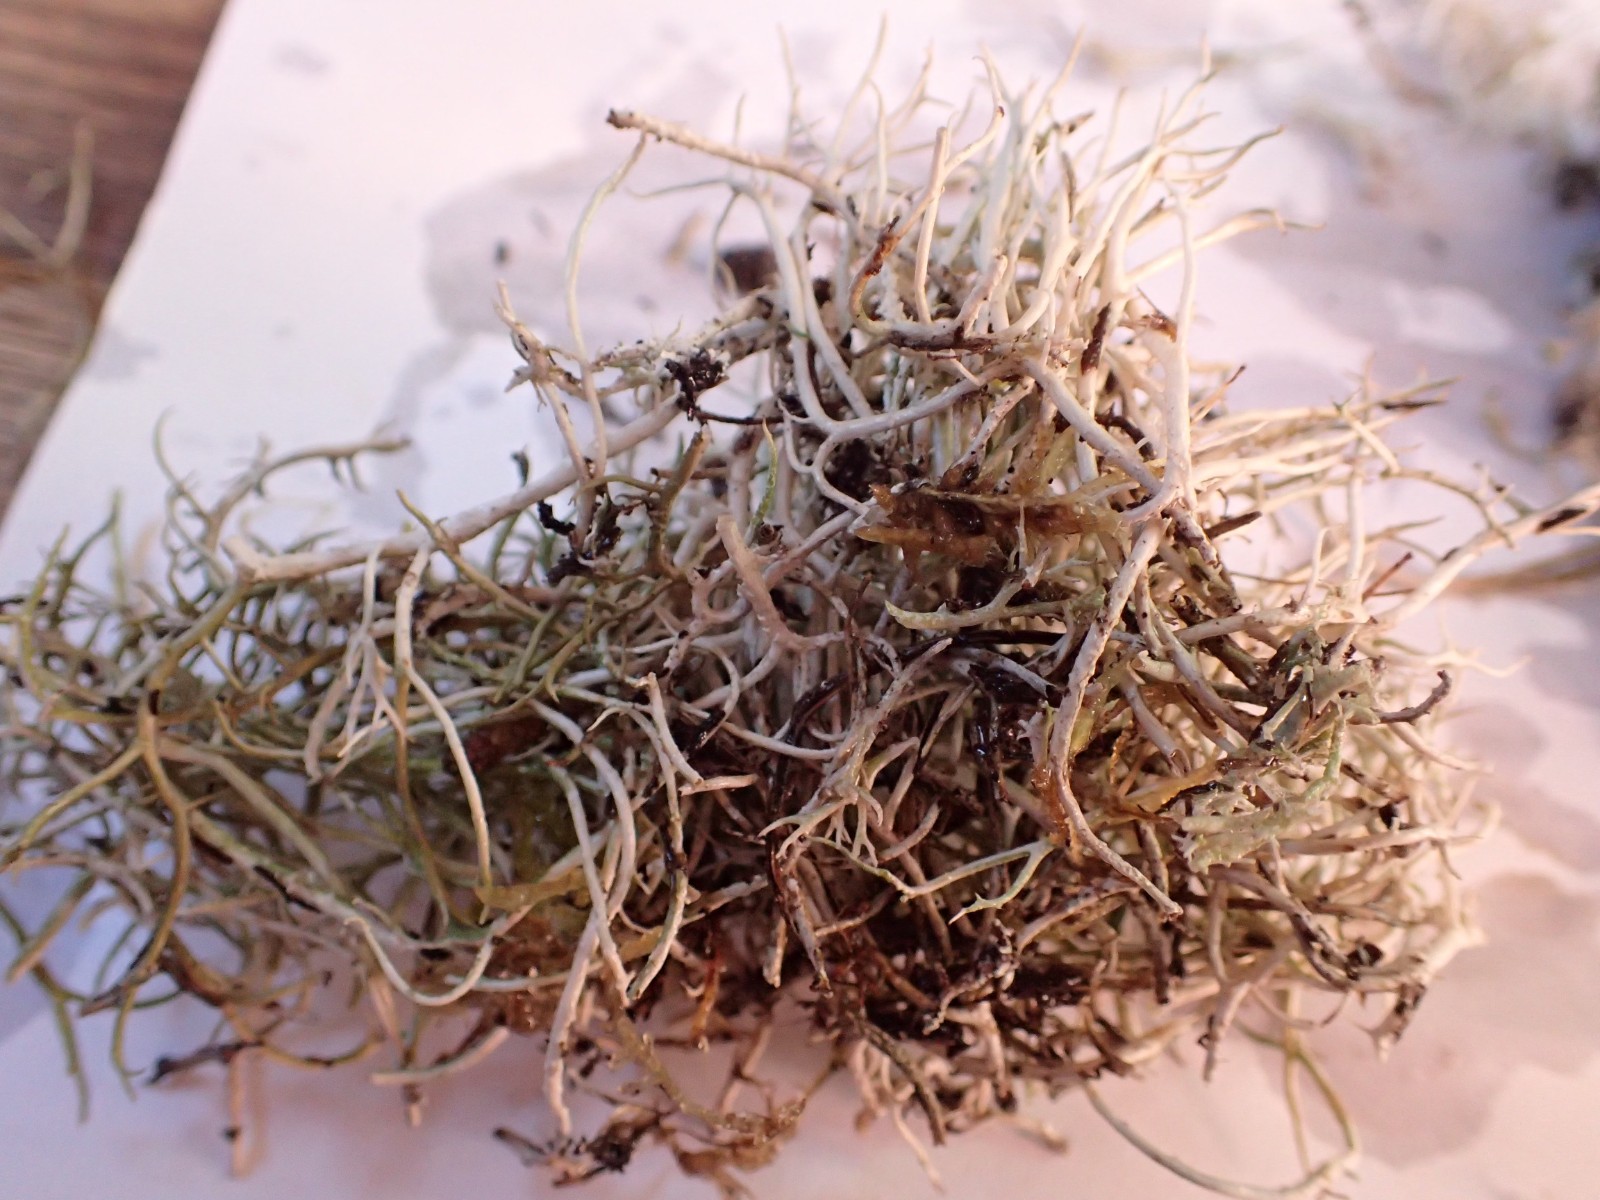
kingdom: Fungi
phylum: Ascomycota
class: Lecanoromycetes
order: Lecanorales
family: Cladoniaceae
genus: Cladonia
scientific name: Cladonia furcata
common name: kløftet bægerlav
